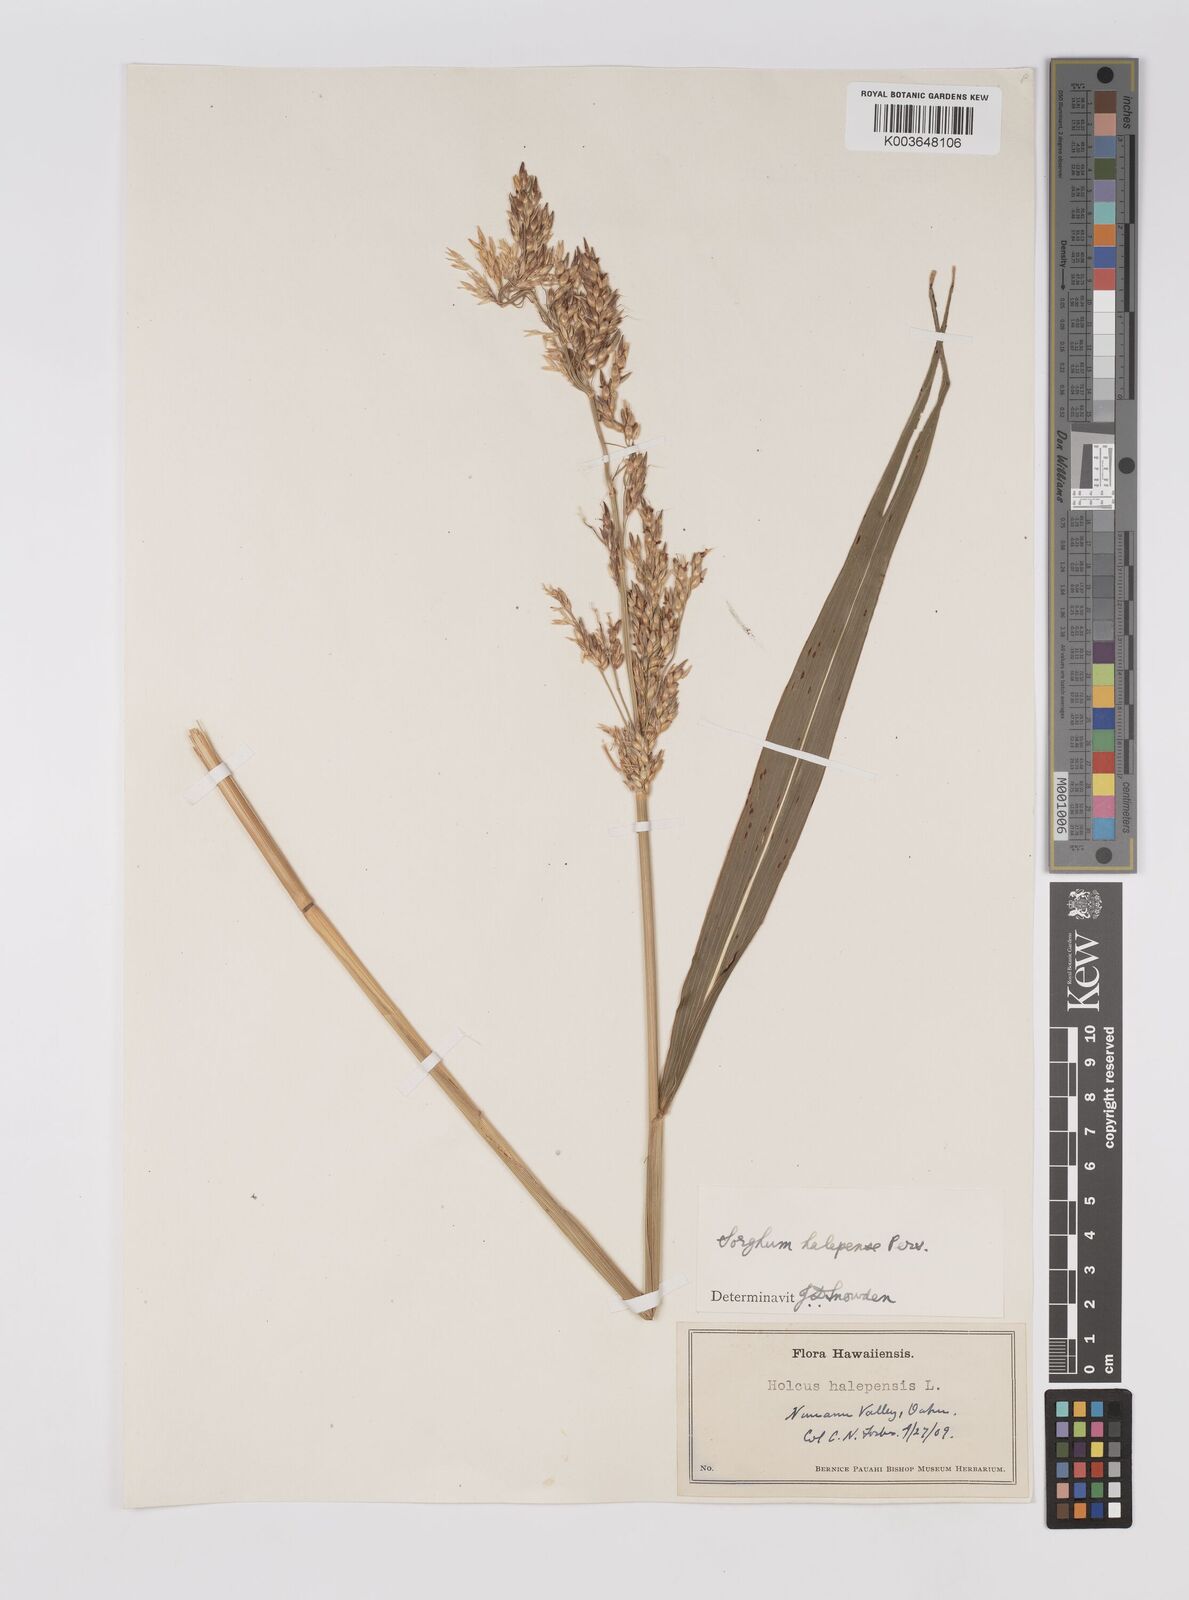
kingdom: Plantae
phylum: Tracheophyta
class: Liliopsida
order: Poales
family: Poaceae
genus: Sorghum
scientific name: Sorghum halepense
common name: Johnson-grass
